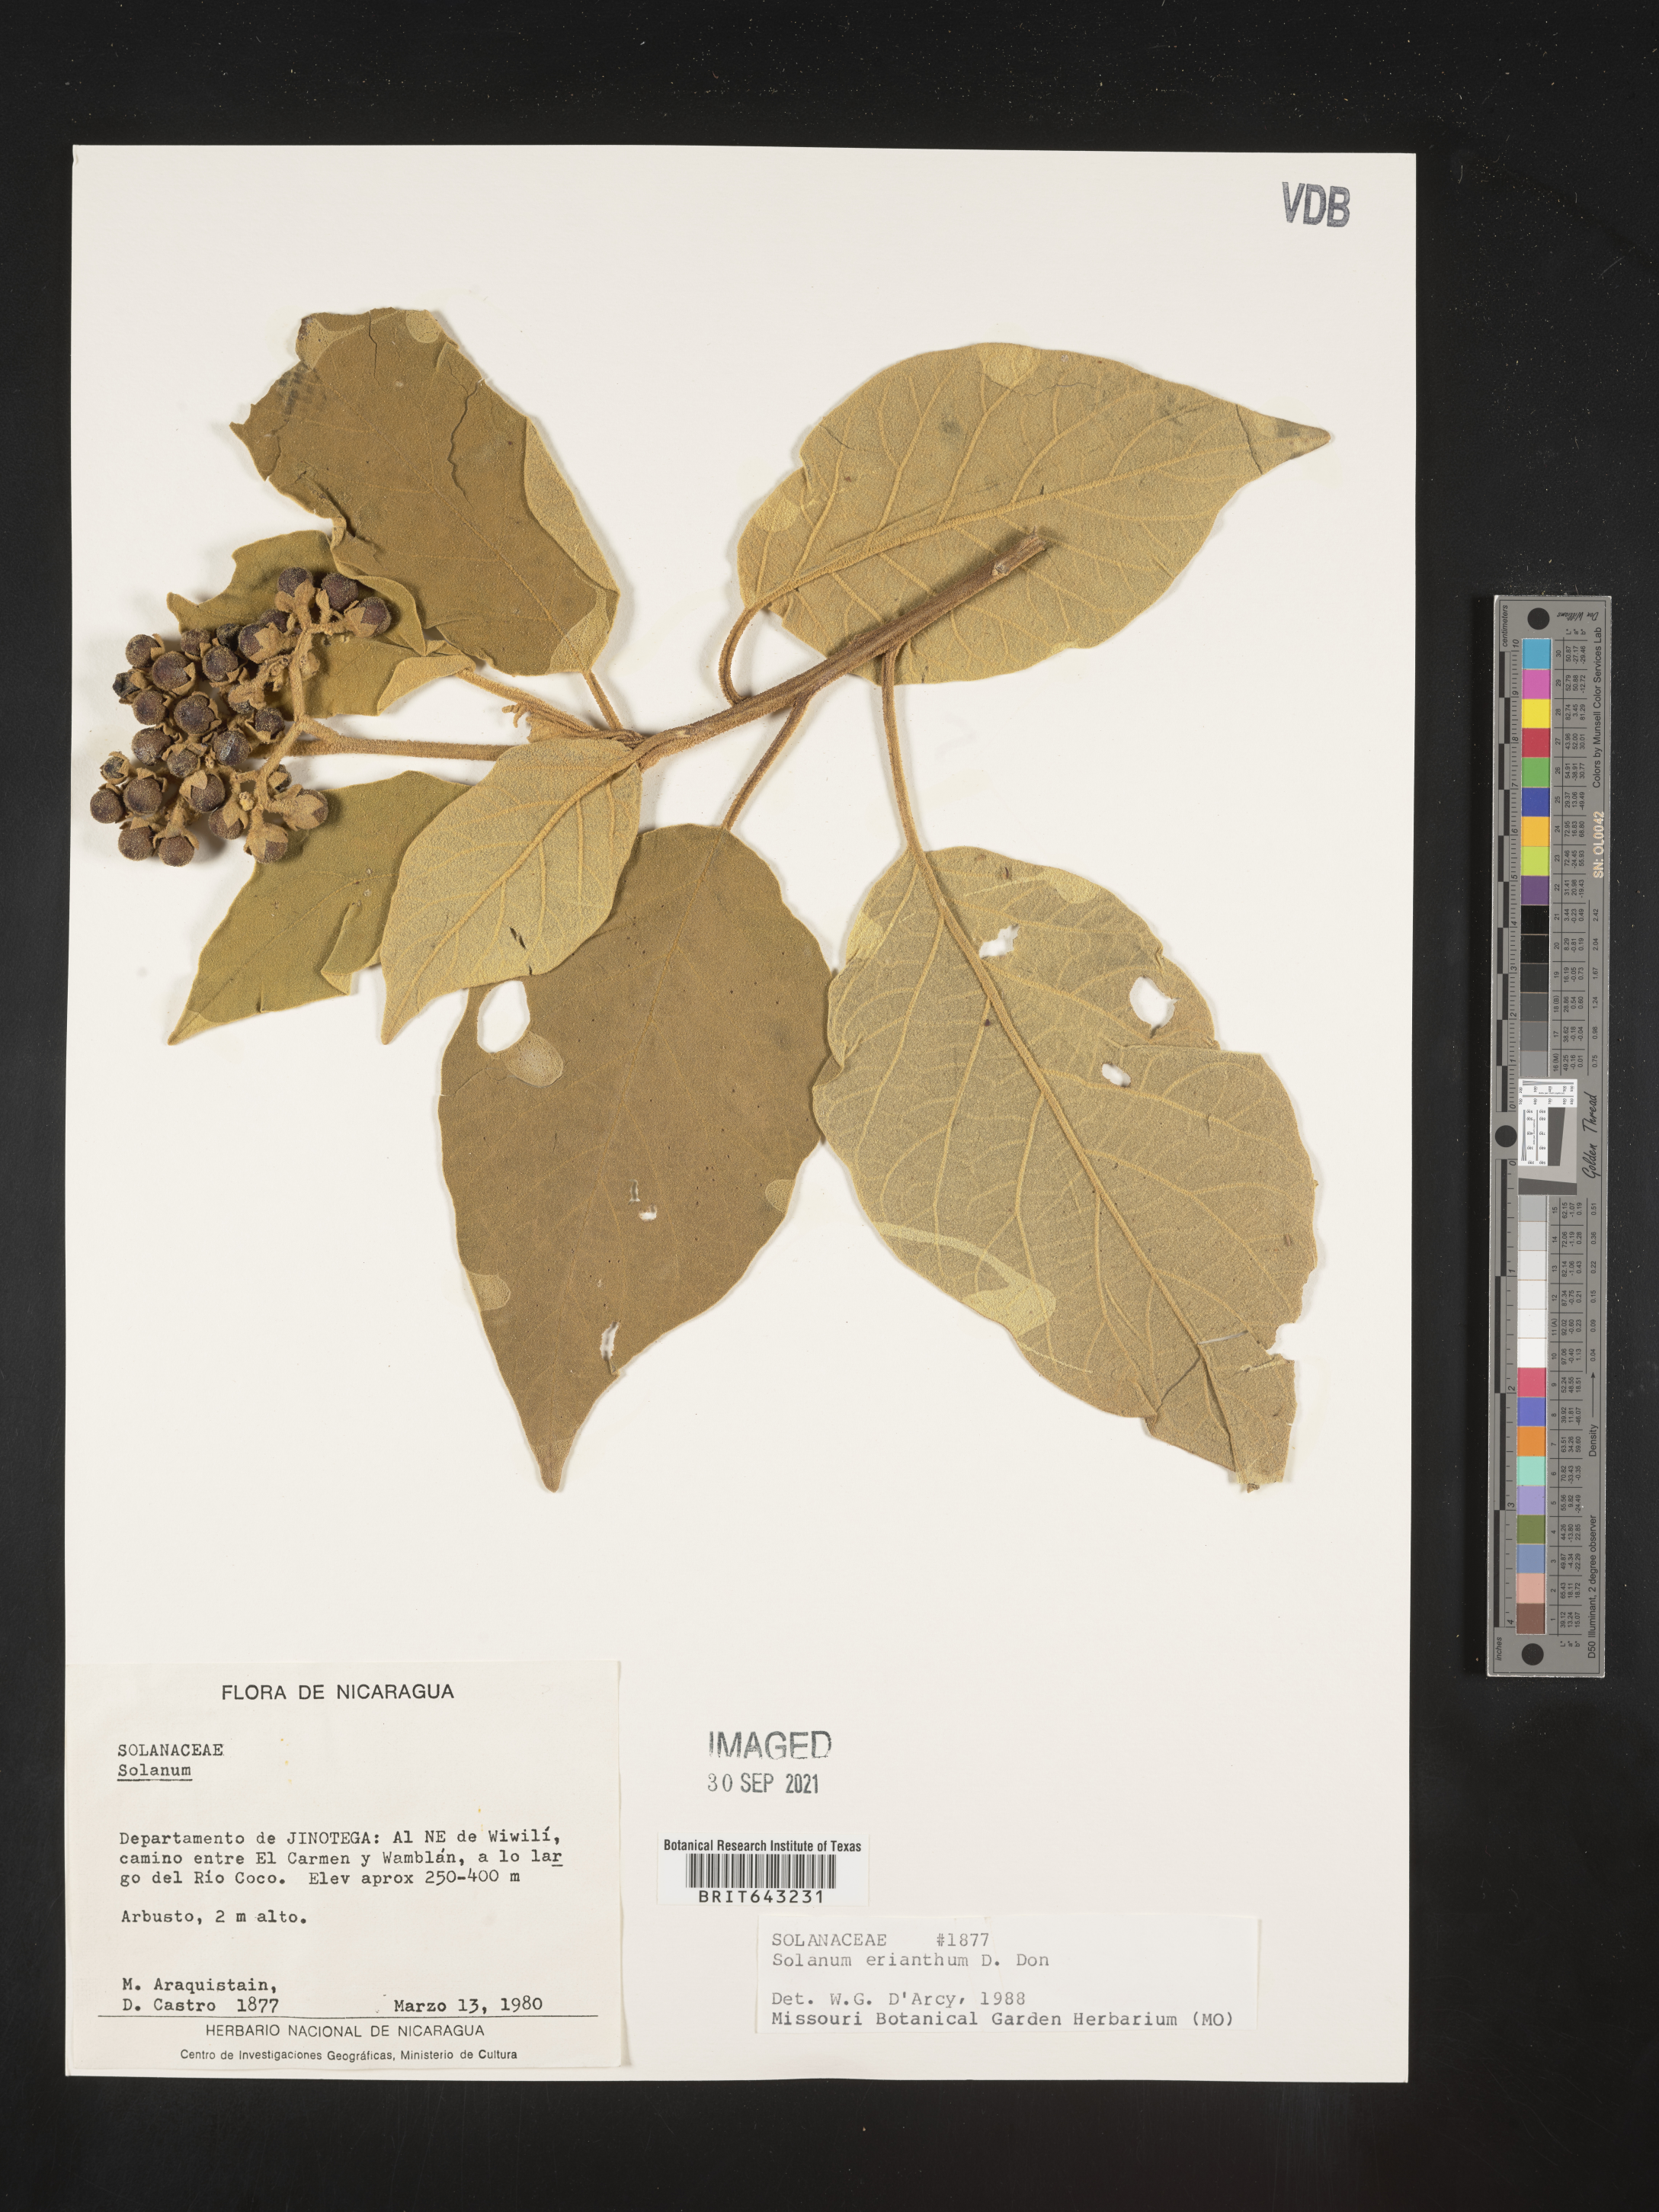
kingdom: Plantae
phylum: Tracheophyta
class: Magnoliopsida
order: Solanales
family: Solanaceae
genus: Solanum
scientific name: Solanum
